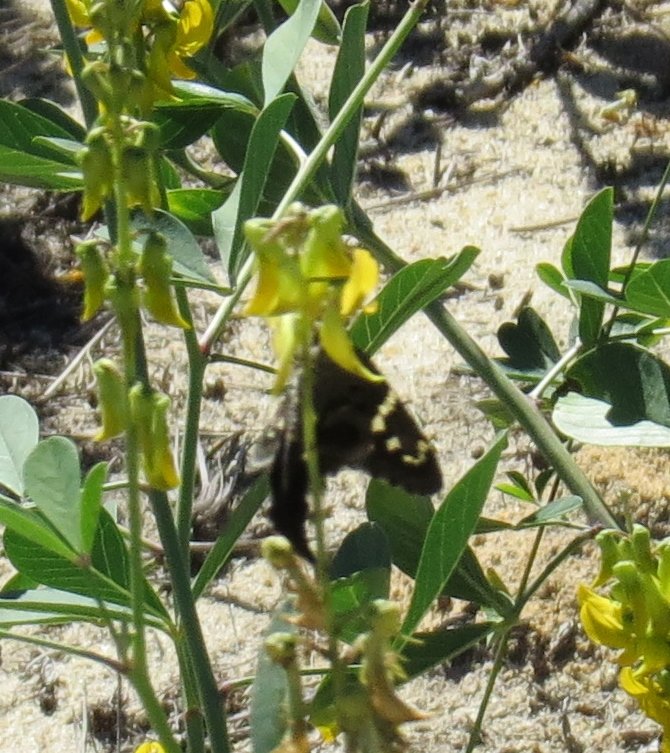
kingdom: Animalia
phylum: Arthropoda
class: Insecta
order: Lepidoptera
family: Hesperiidae
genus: Urbanus
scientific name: Urbanus proteus
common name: Long-tailed Skipper
